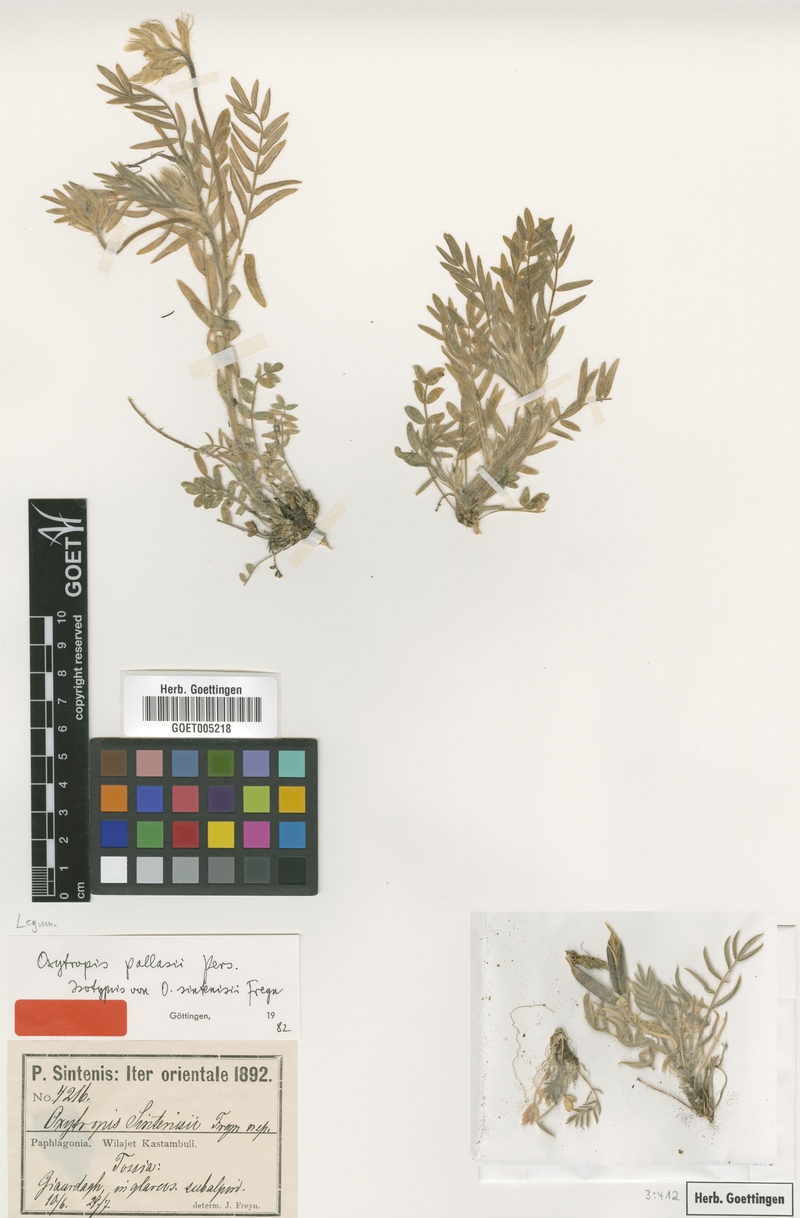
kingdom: Plantae
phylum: Tracheophyta
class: Magnoliopsida
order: Fabales
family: Fabaceae
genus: Oxytropis
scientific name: Oxytropis pallasii
